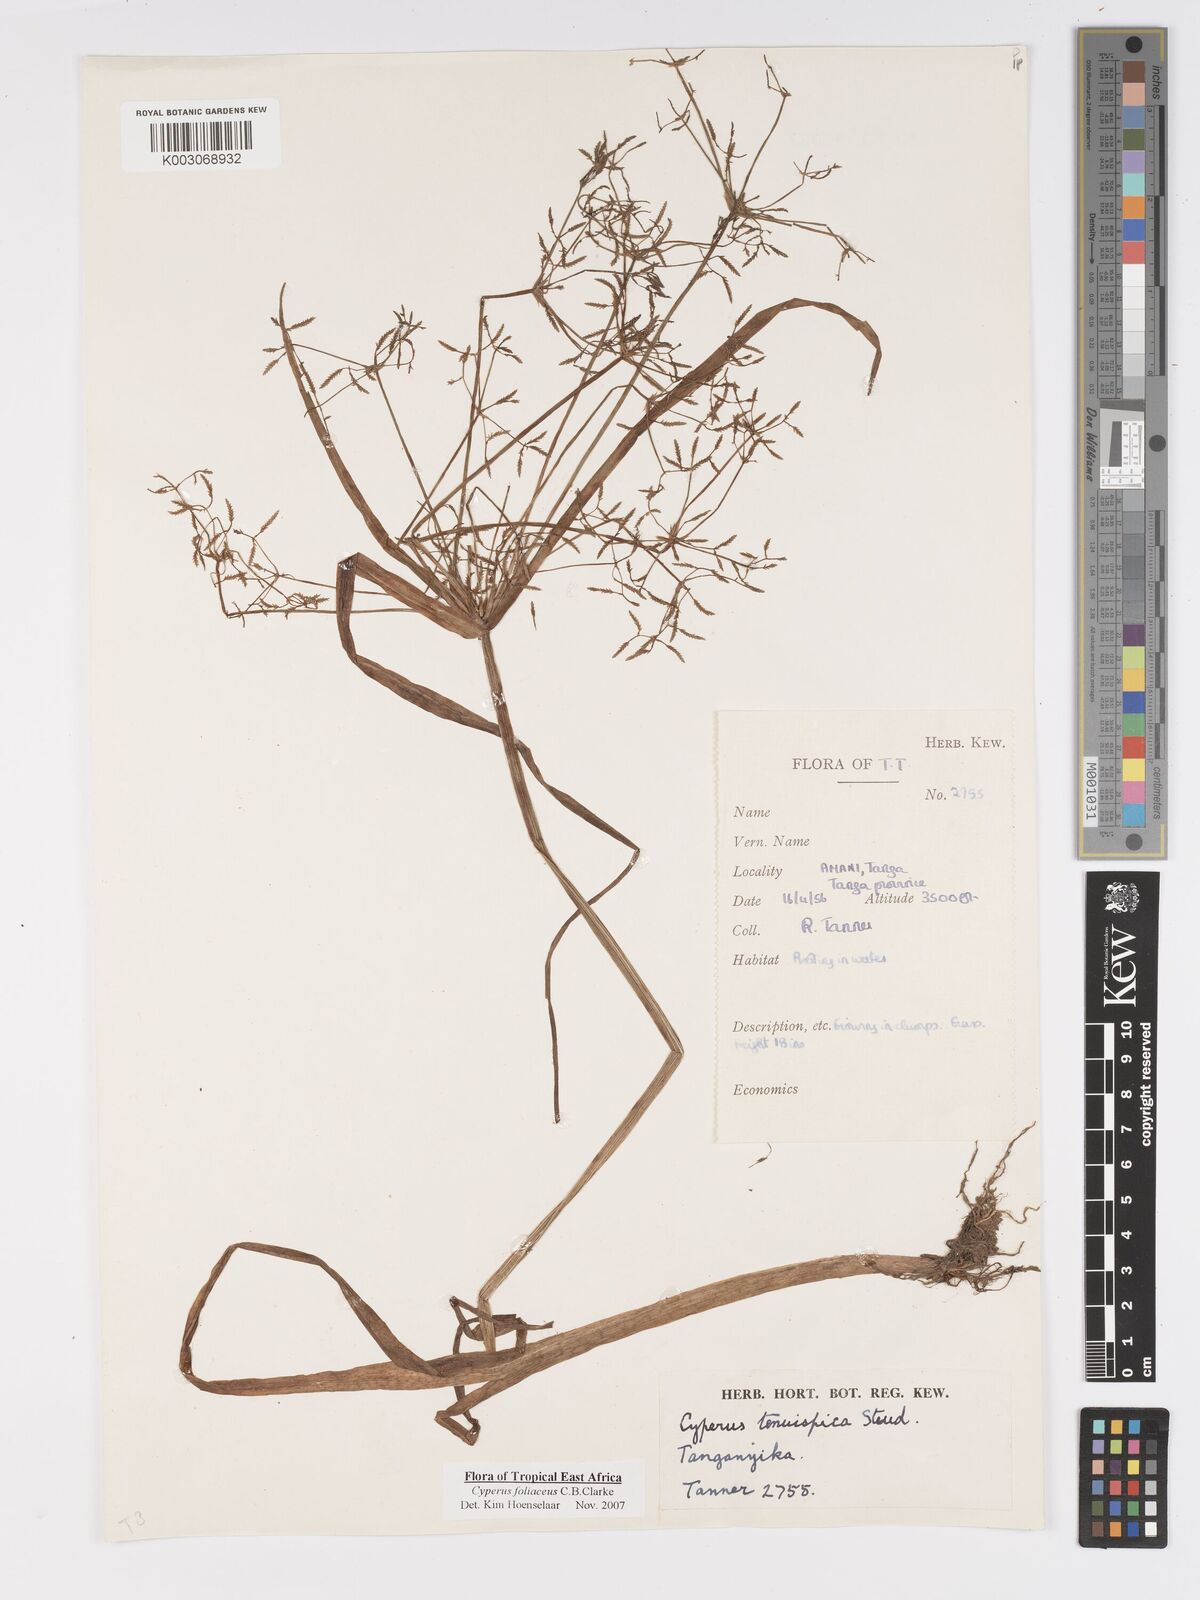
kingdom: Plantae
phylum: Tracheophyta
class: Liliopsida
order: Poales
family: Cyperaceae
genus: Cyperus
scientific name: Cyperus foliaceus
